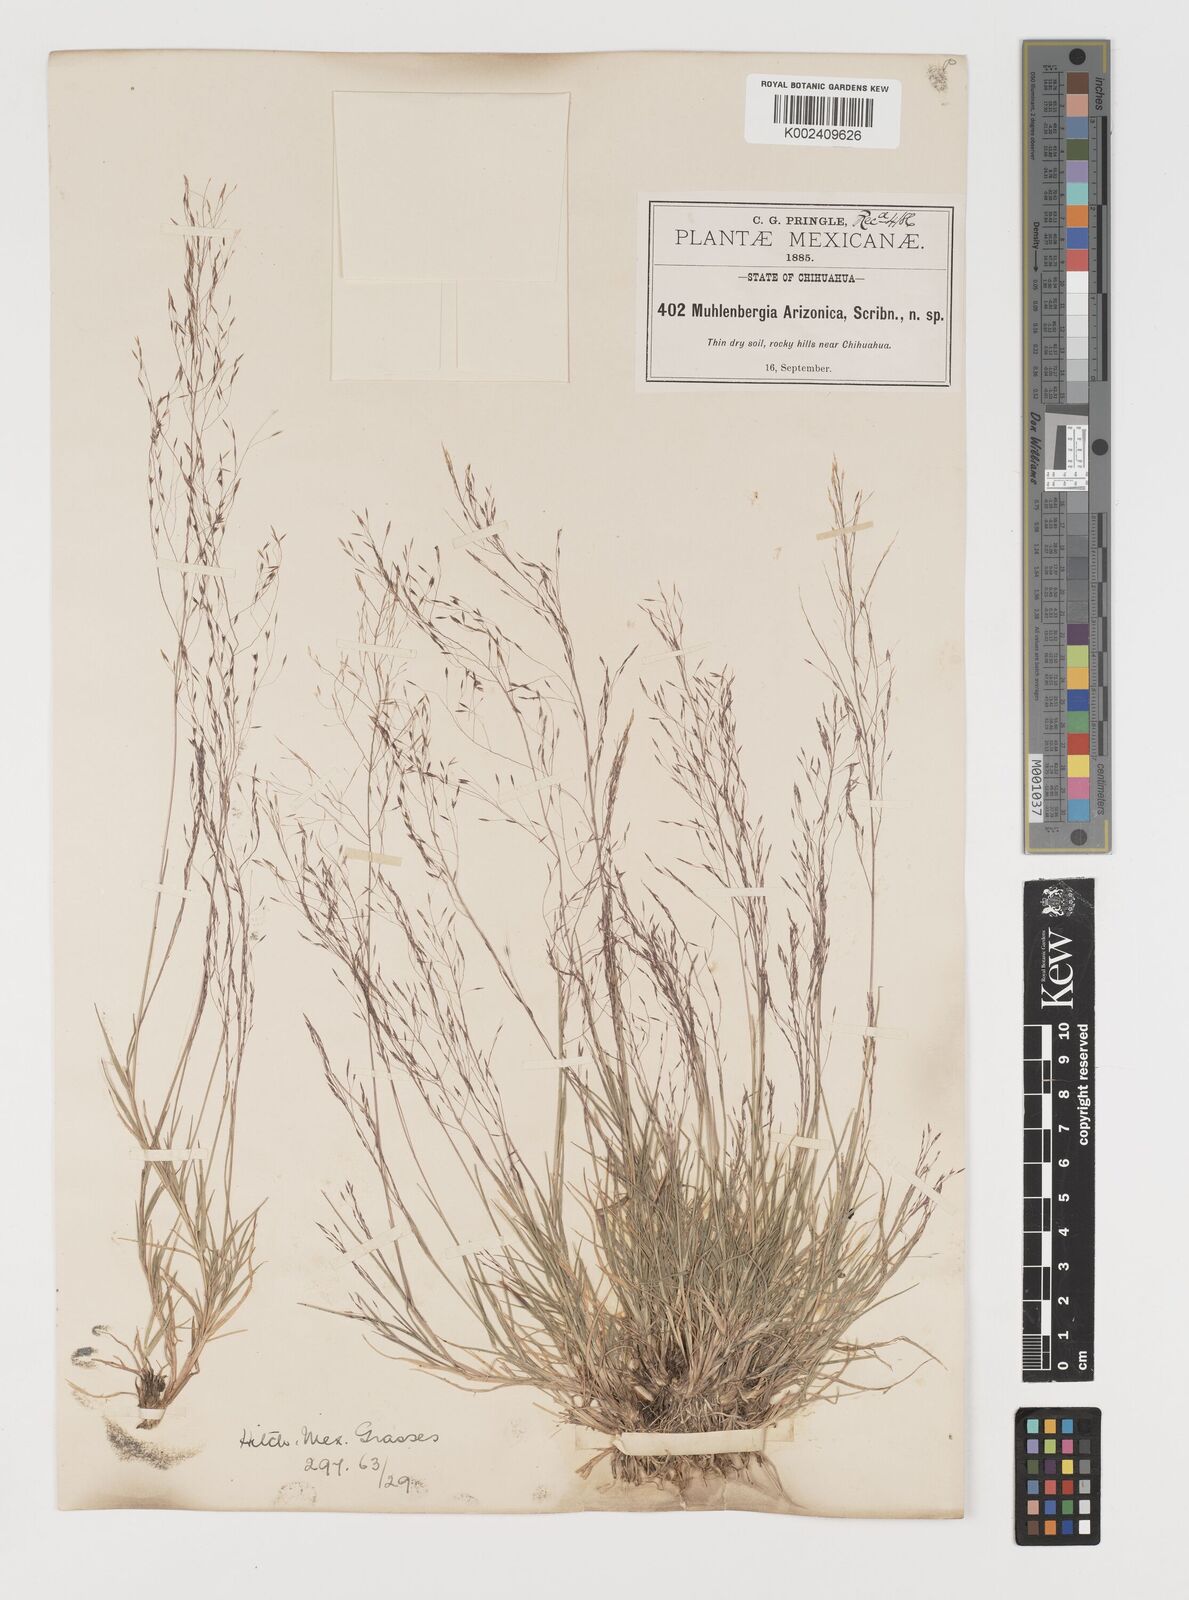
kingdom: Plantae
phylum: Tracheophyta
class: Liliopsida
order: Poales
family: Poaceae
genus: Muhlenbergia
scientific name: Muhlenbergia arizonica
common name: Arizona muhly
